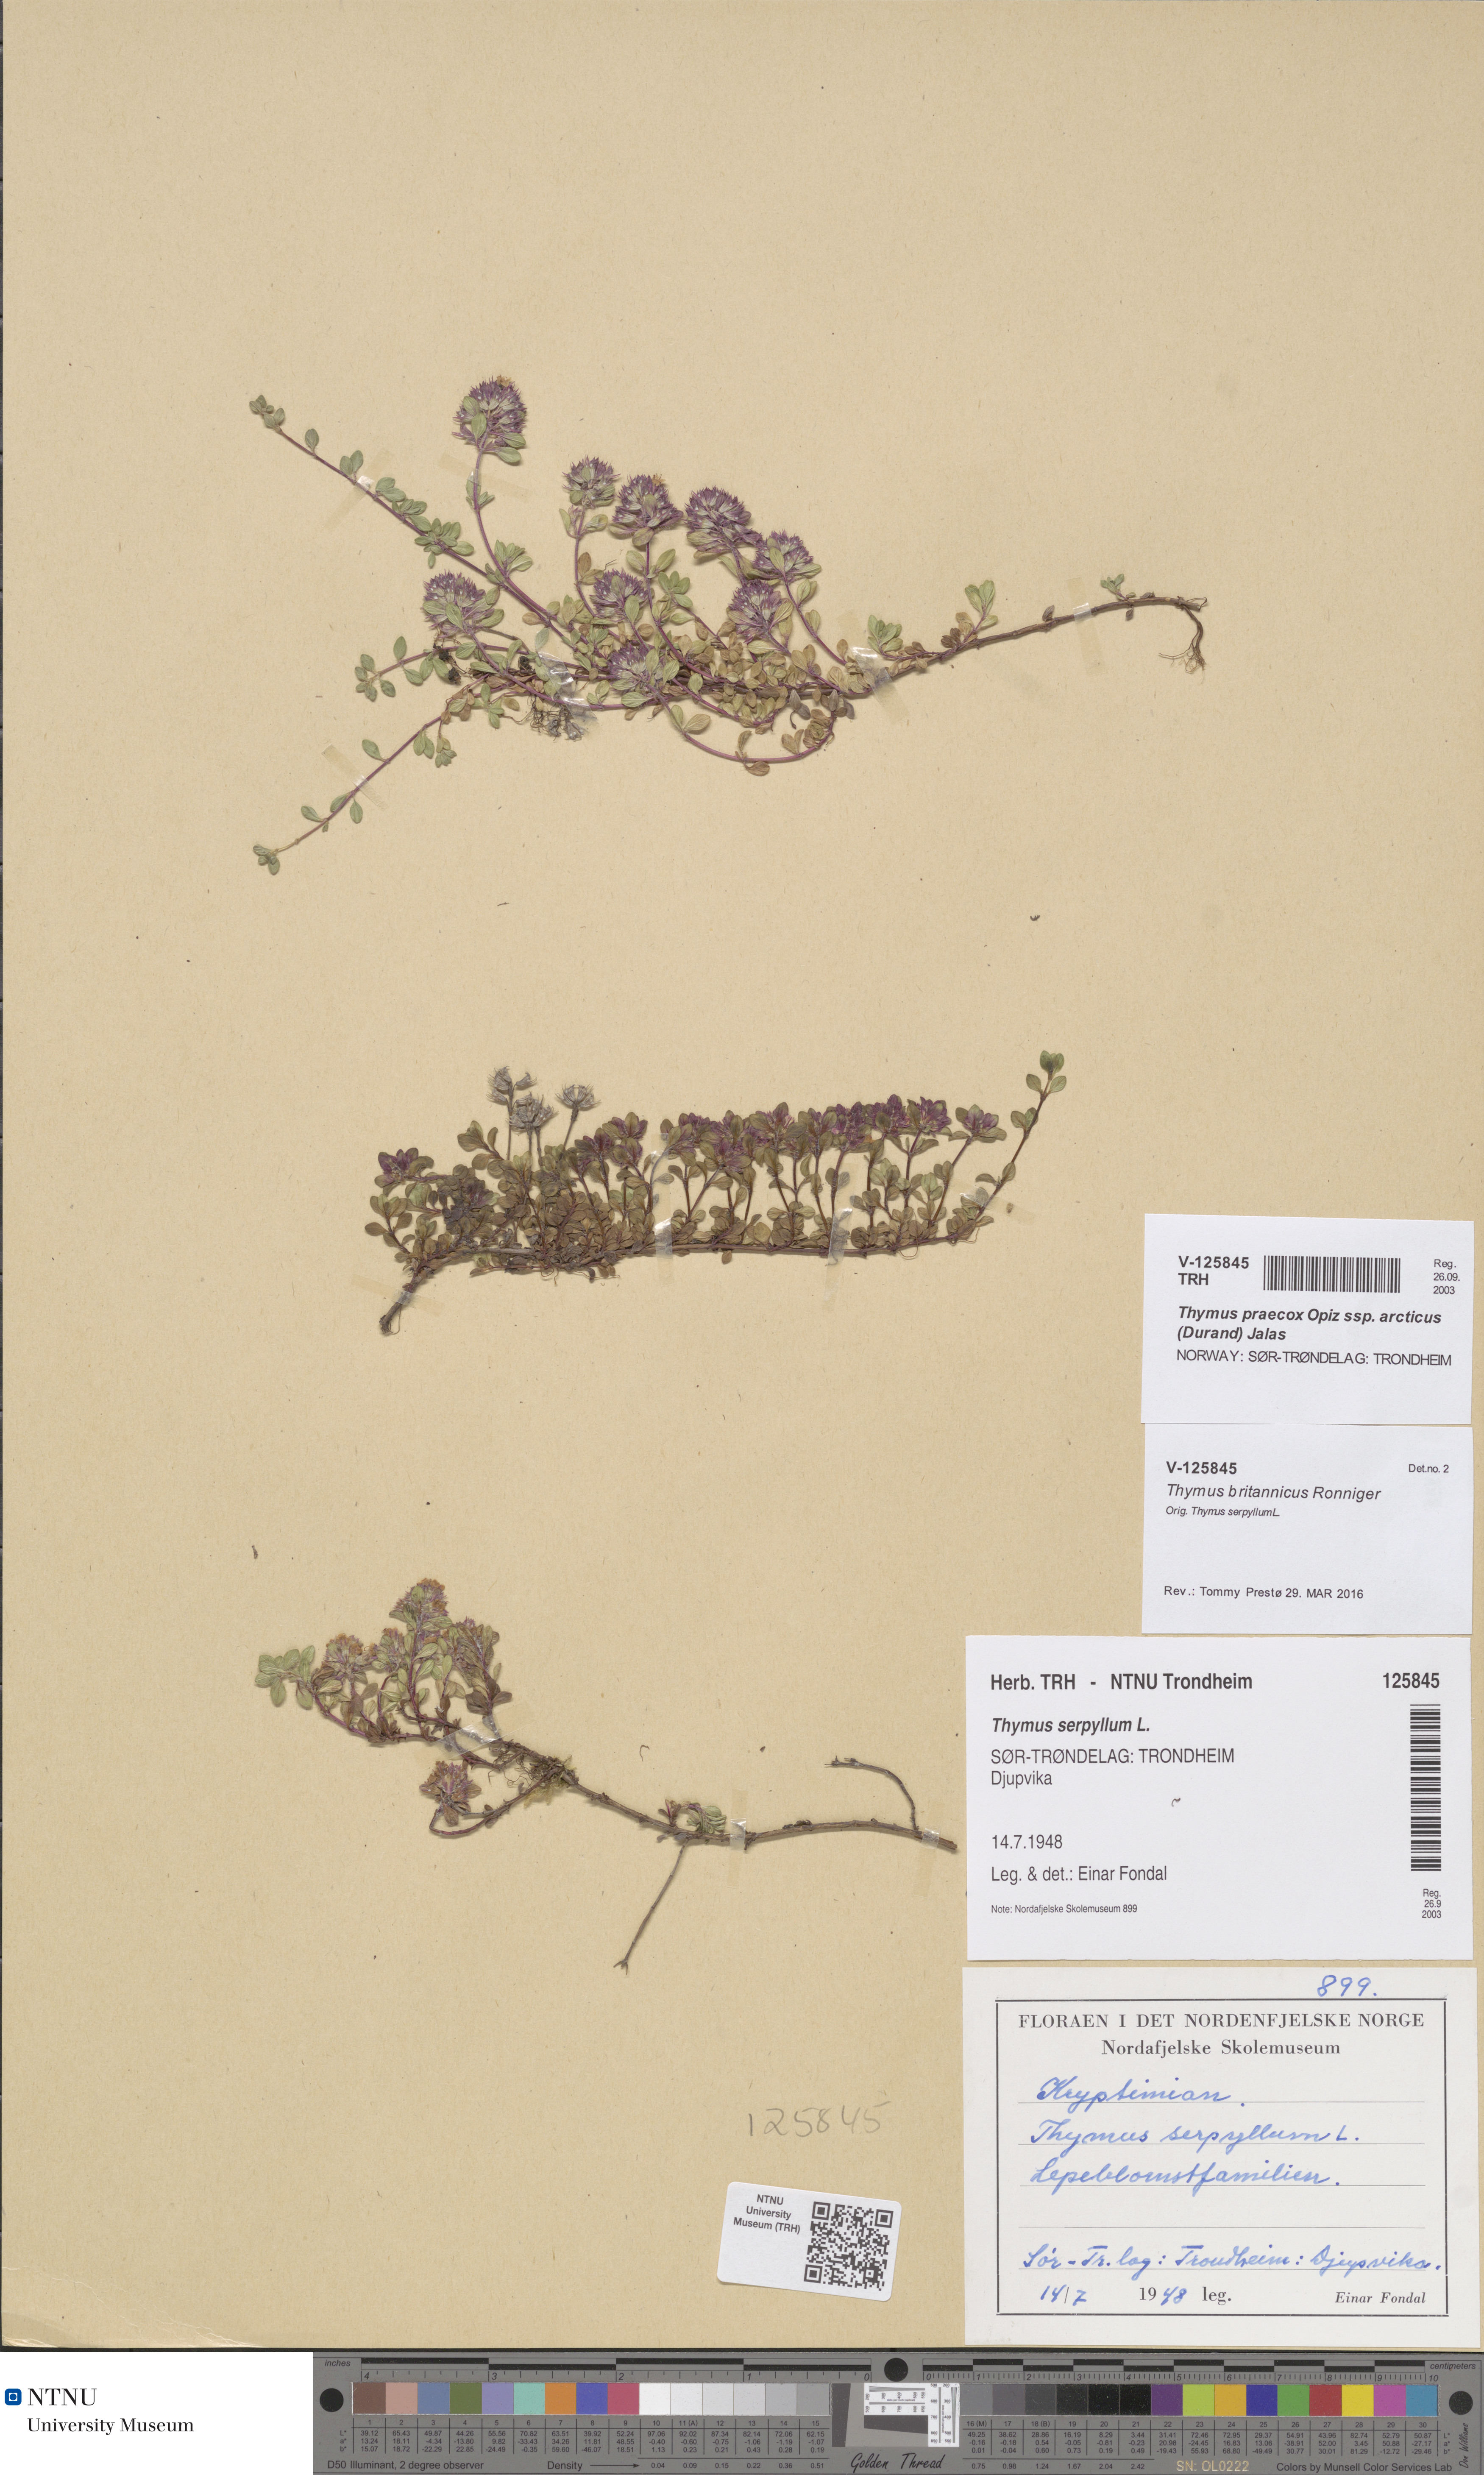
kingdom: Plantae
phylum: Tracheophyta
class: Magnoliopsida
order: Lamiales
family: Lamiaceae
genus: Thymus
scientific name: Thymus praecox
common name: Wild thyme
